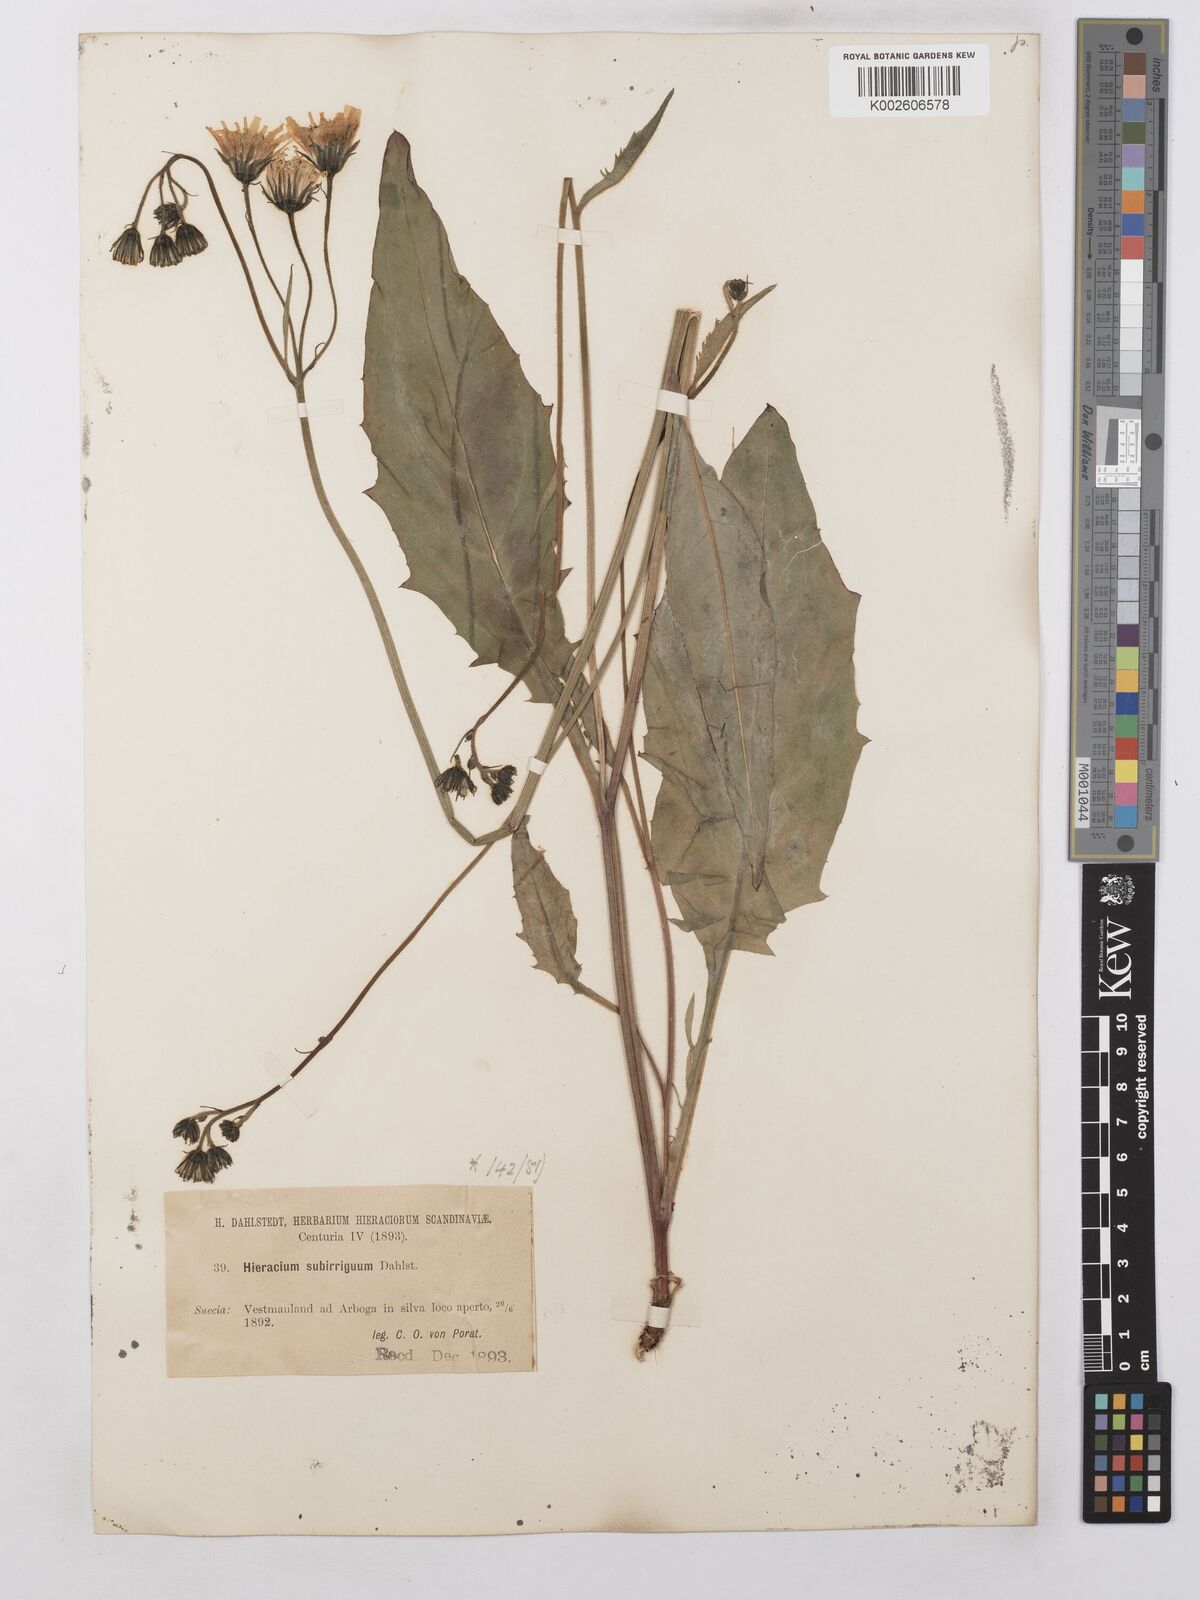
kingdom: Plantae
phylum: Tracheophyta
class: Magnoliopsida
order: Asterales
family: Asteraceae
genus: Hieracium
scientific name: Hieracium lachenalii
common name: Common hawkweed
